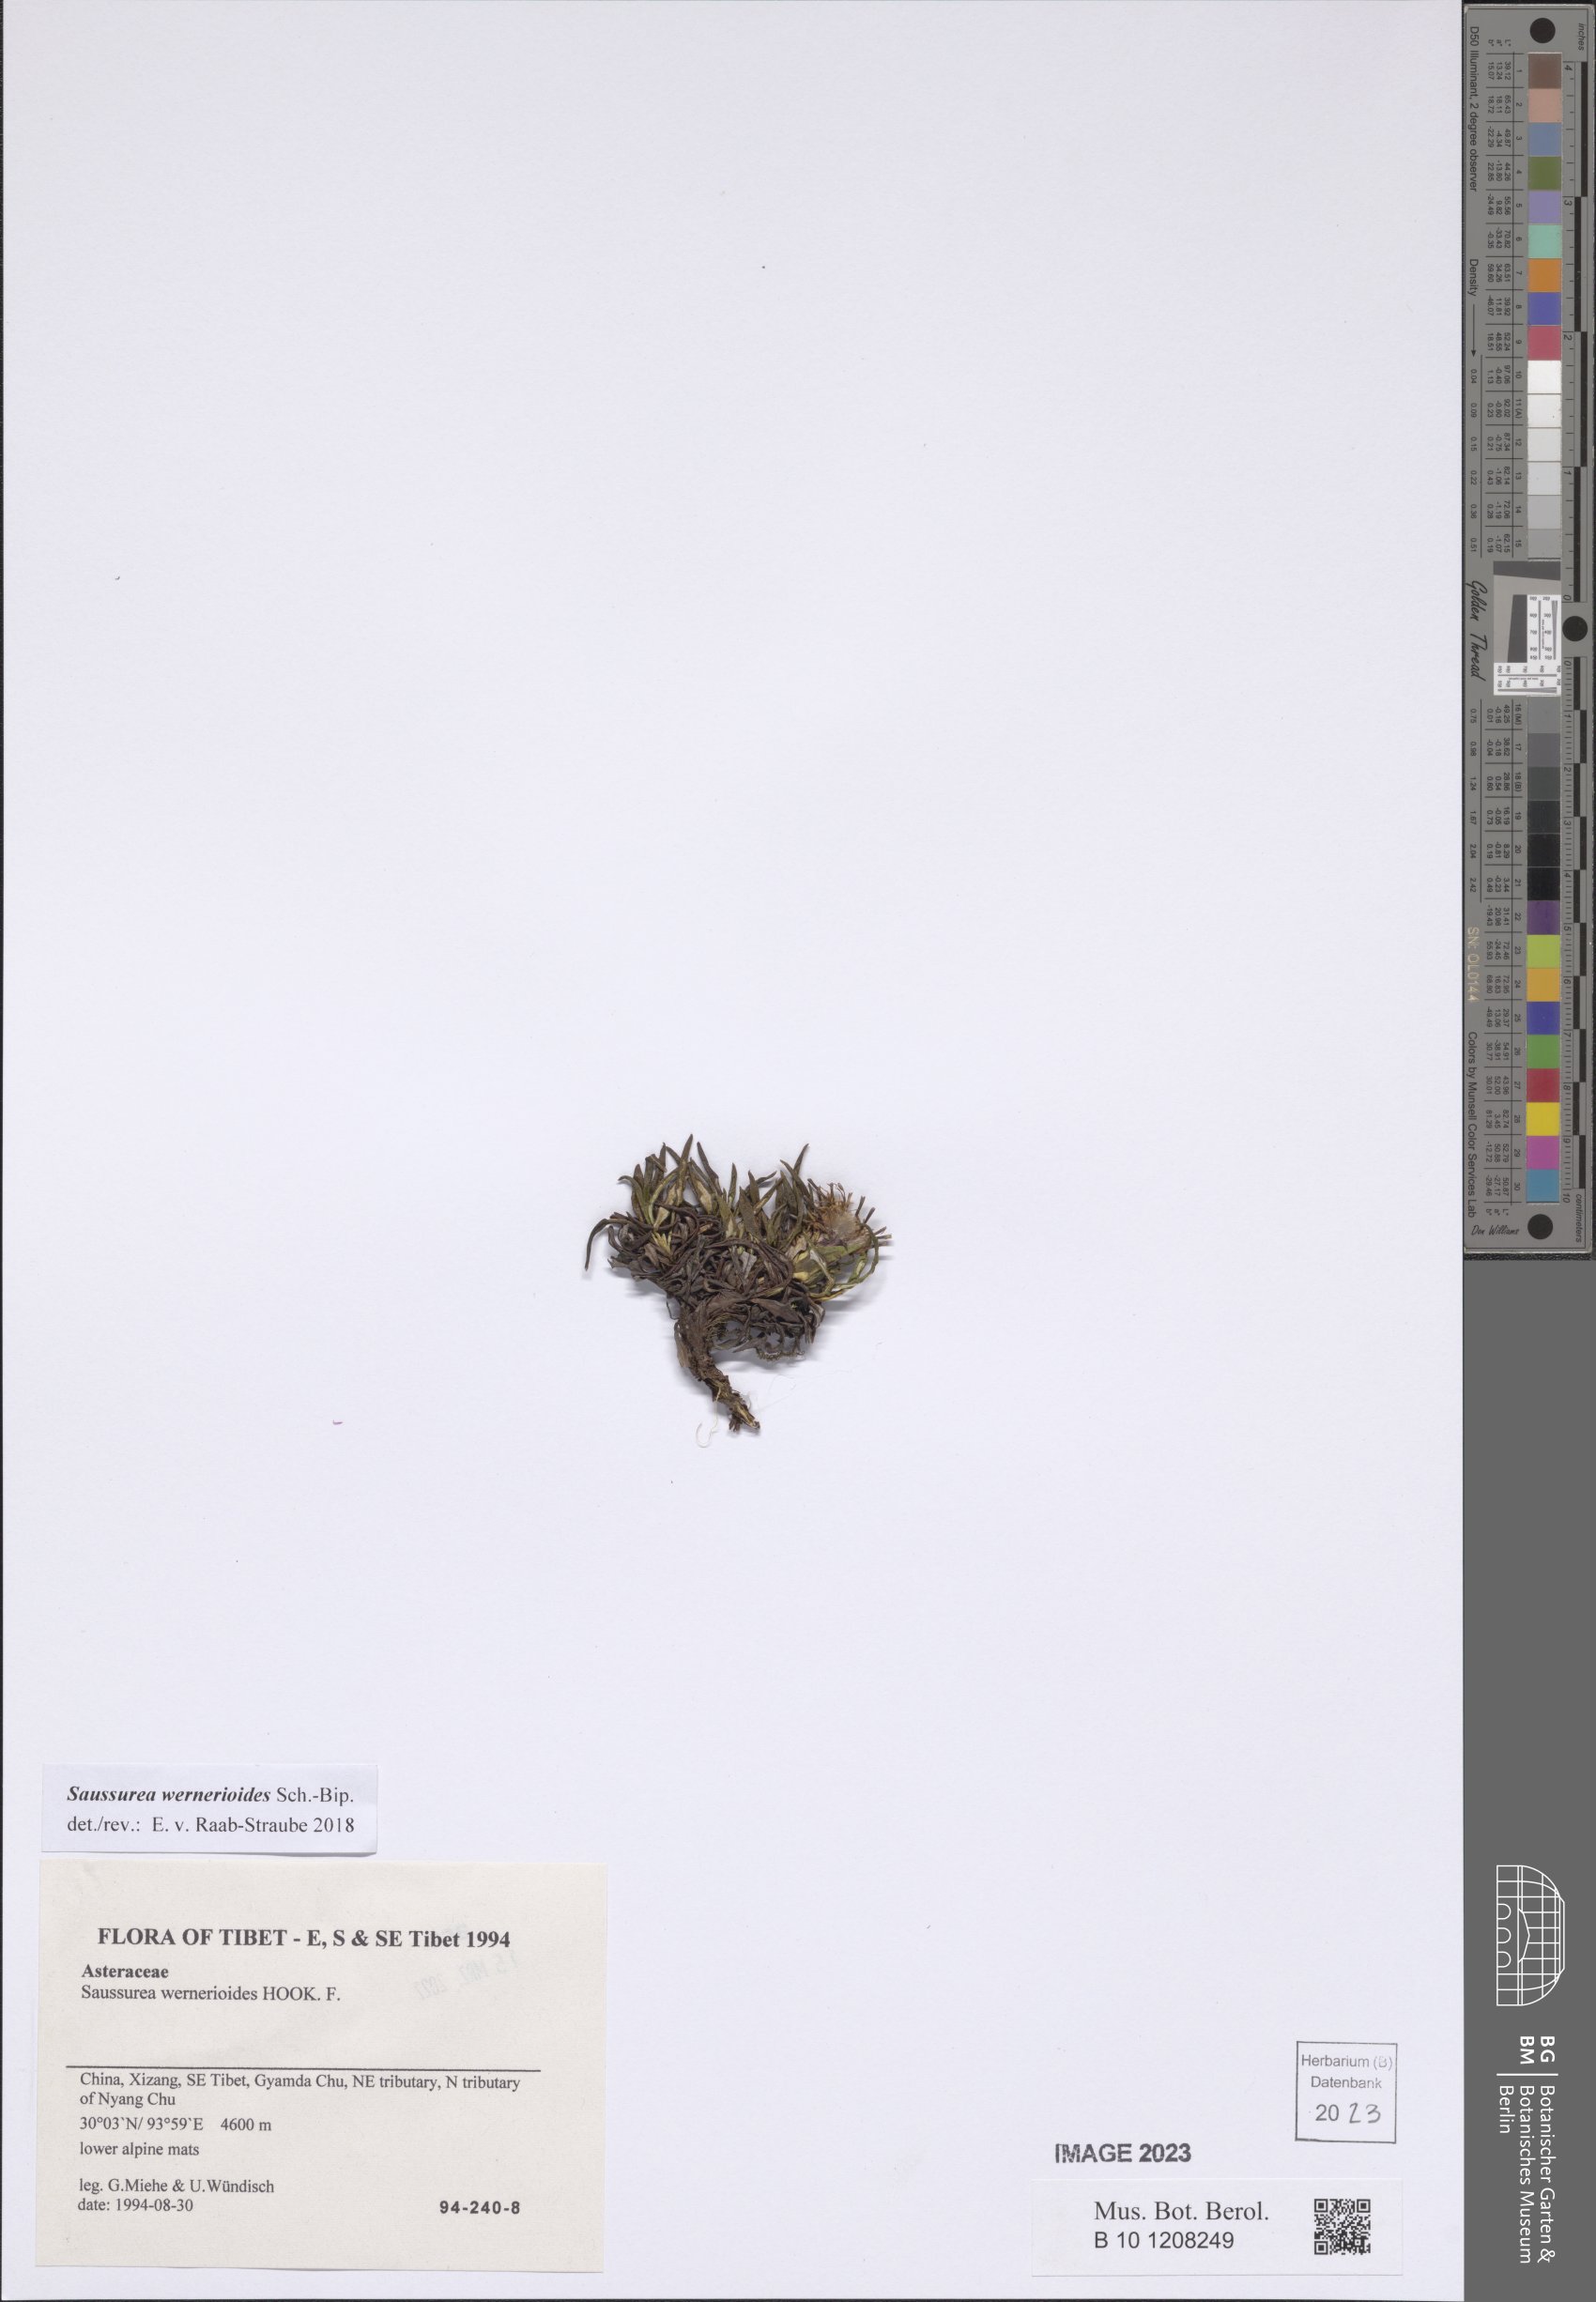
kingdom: Plantae
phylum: Tracheophyta
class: Magnoliopsida
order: Asterales
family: Asteraceae
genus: Saussurea
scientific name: Saussurea wernerioides
